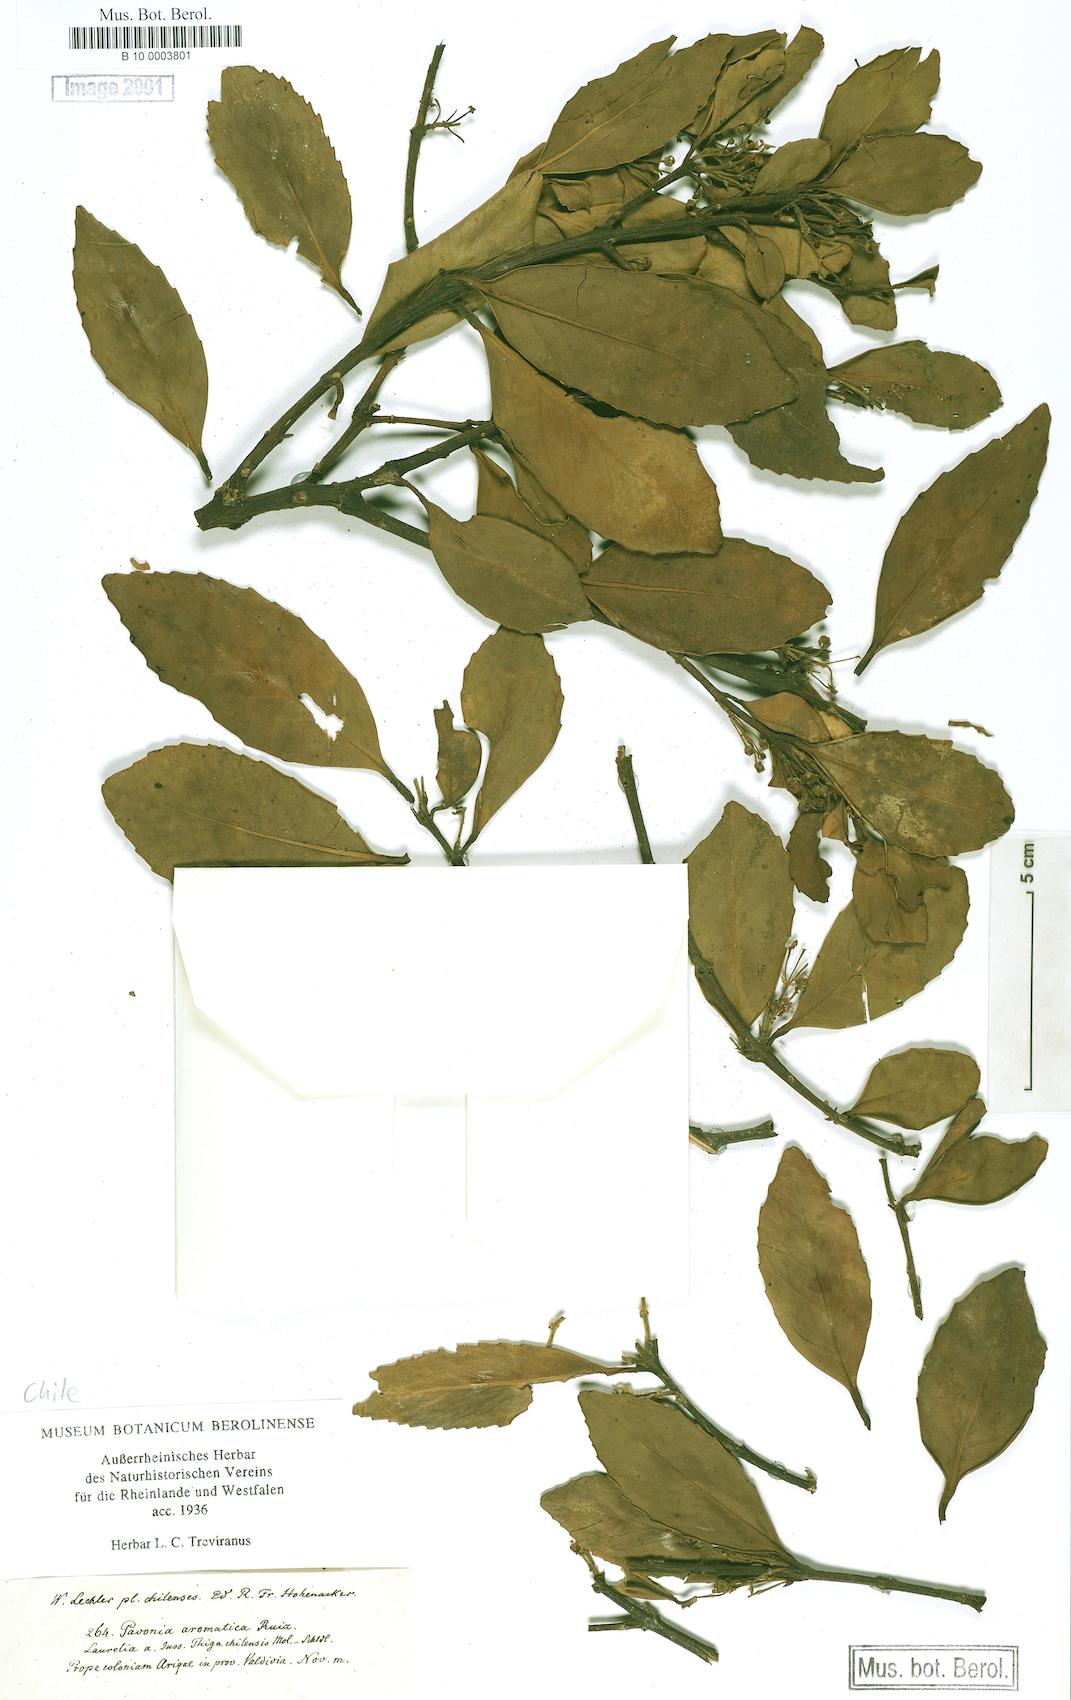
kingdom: Plantae
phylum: Tracheophyta
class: Magnoliopsida
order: Malvales
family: Malvaceae
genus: Pavonia
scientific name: Pavonia
